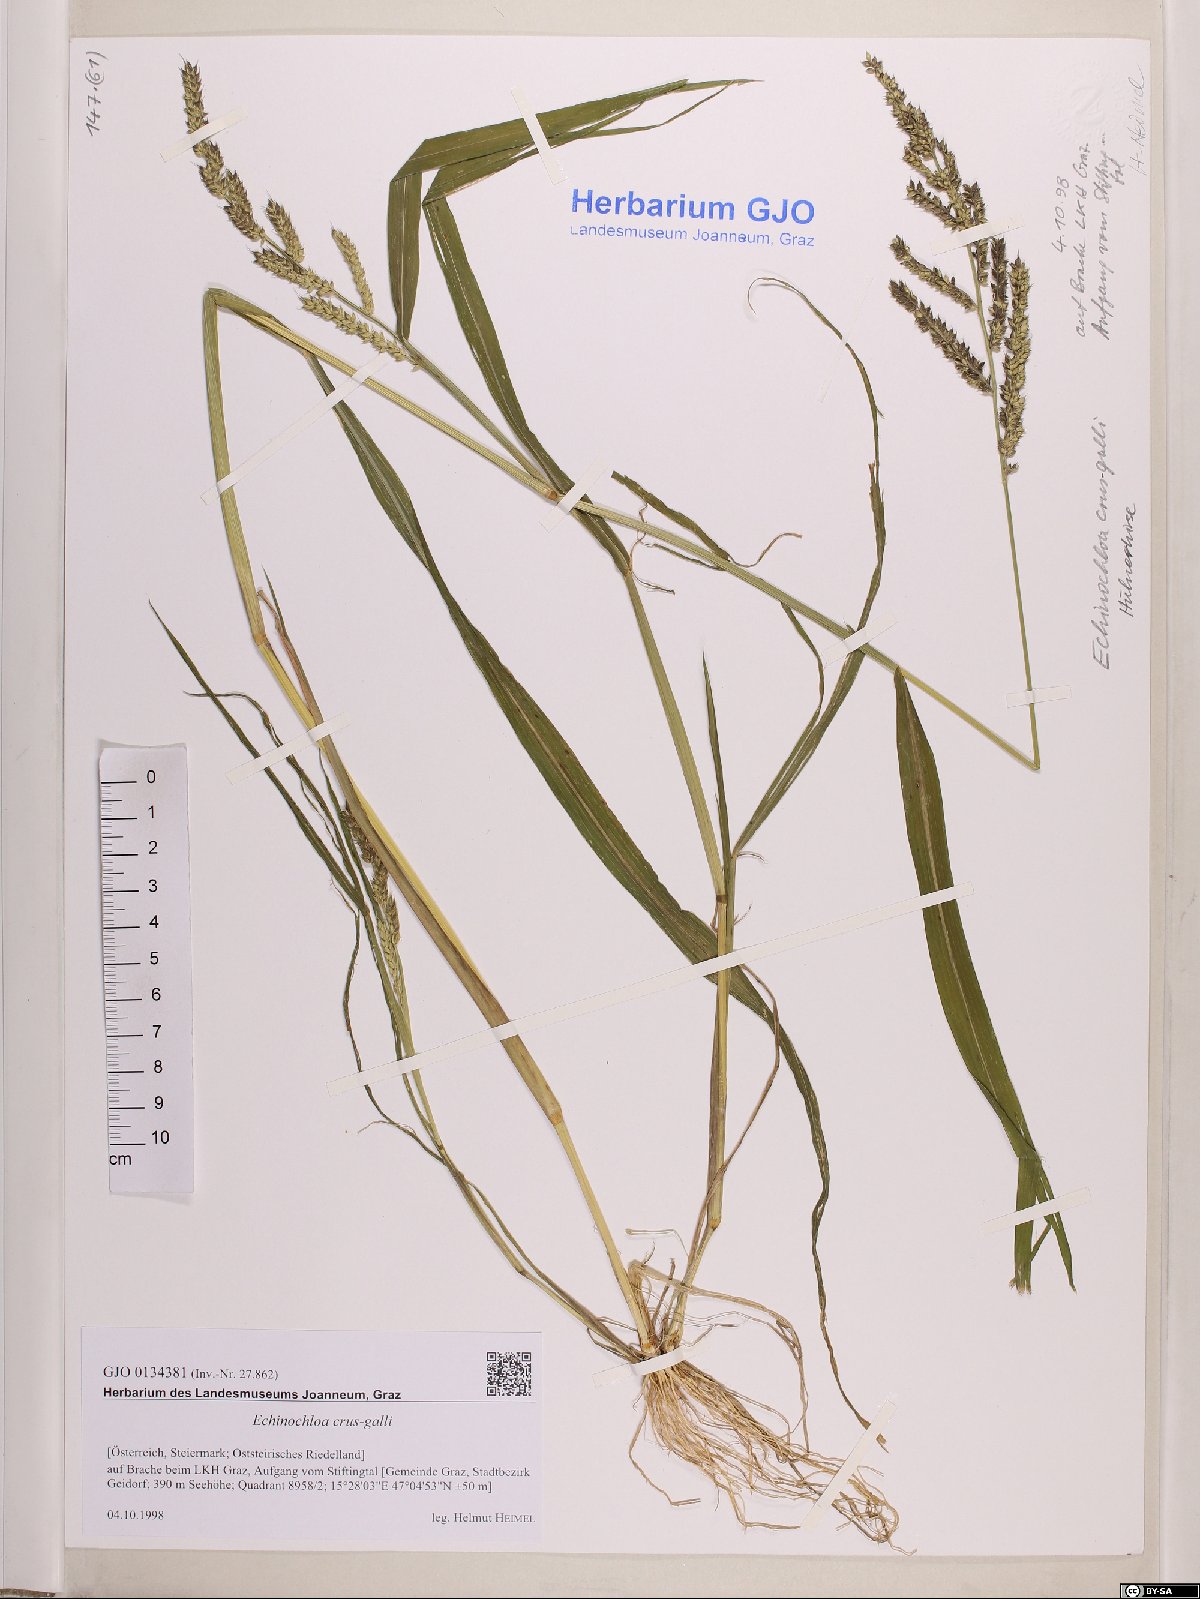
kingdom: Plantae
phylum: Tracheophyta
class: Liliopsida
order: Poales
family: Poaceae
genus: Echinochloa
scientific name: Echinochloa crus-galli
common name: Cockspur
